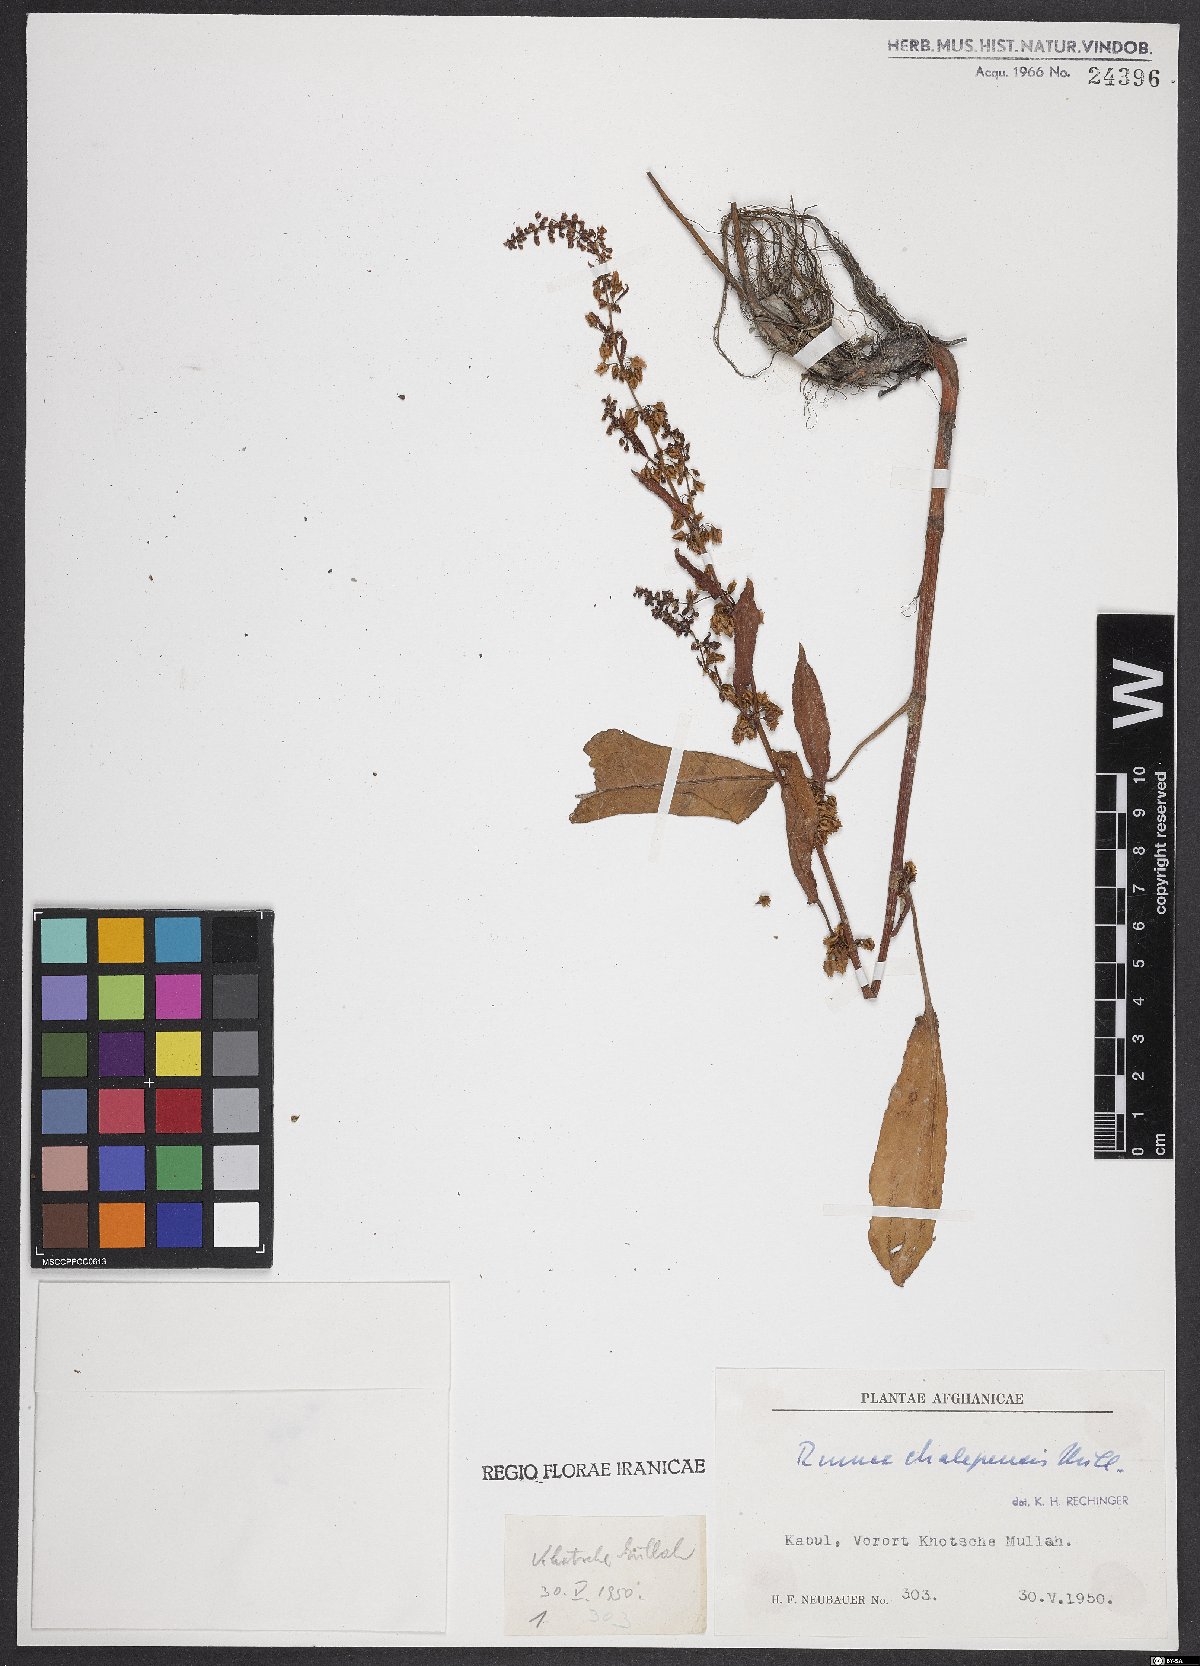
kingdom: Plantae
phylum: Tracheophyta
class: Magnoliopsida
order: Caryophyllales
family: Polygonaceae
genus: Rumex
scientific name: Rumex chalepensis
